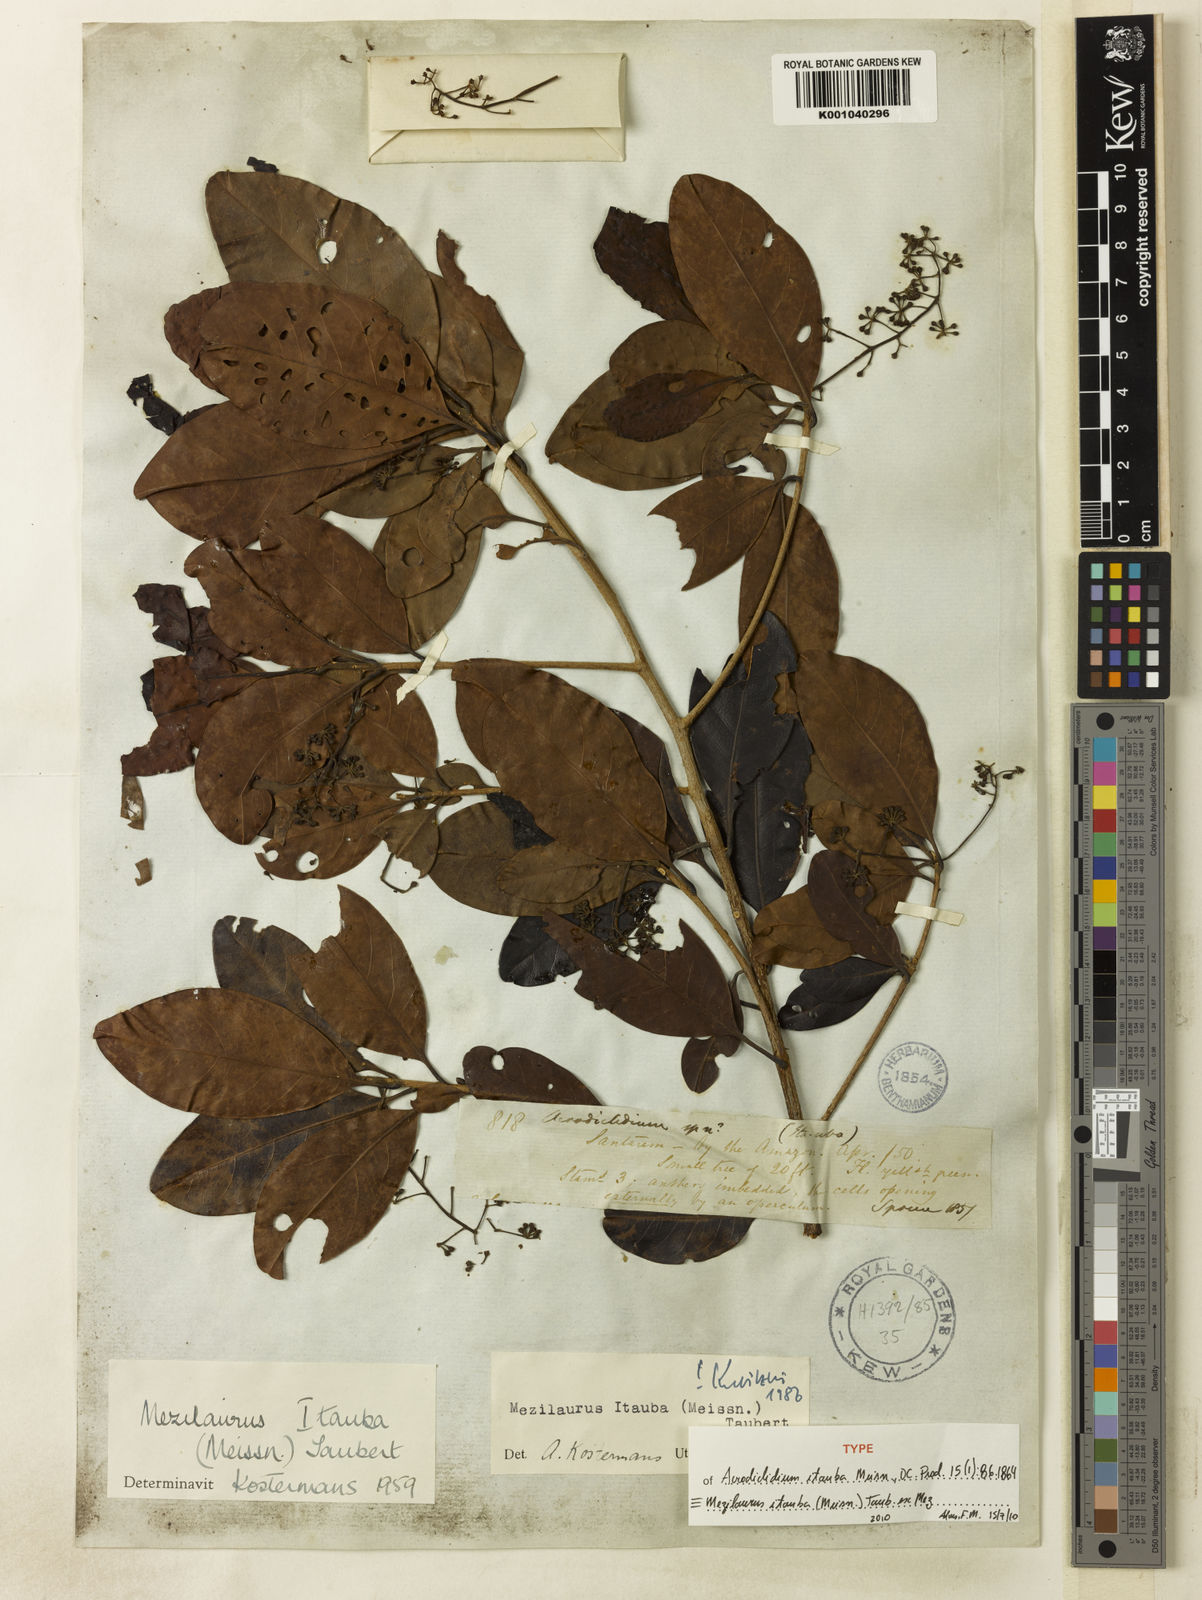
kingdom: Plantae
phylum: Tracheophyta
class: Magnoliopsida
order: Laurales
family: Lauraceae
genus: Mezilaurus
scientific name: Mezilaurus ita-uba
